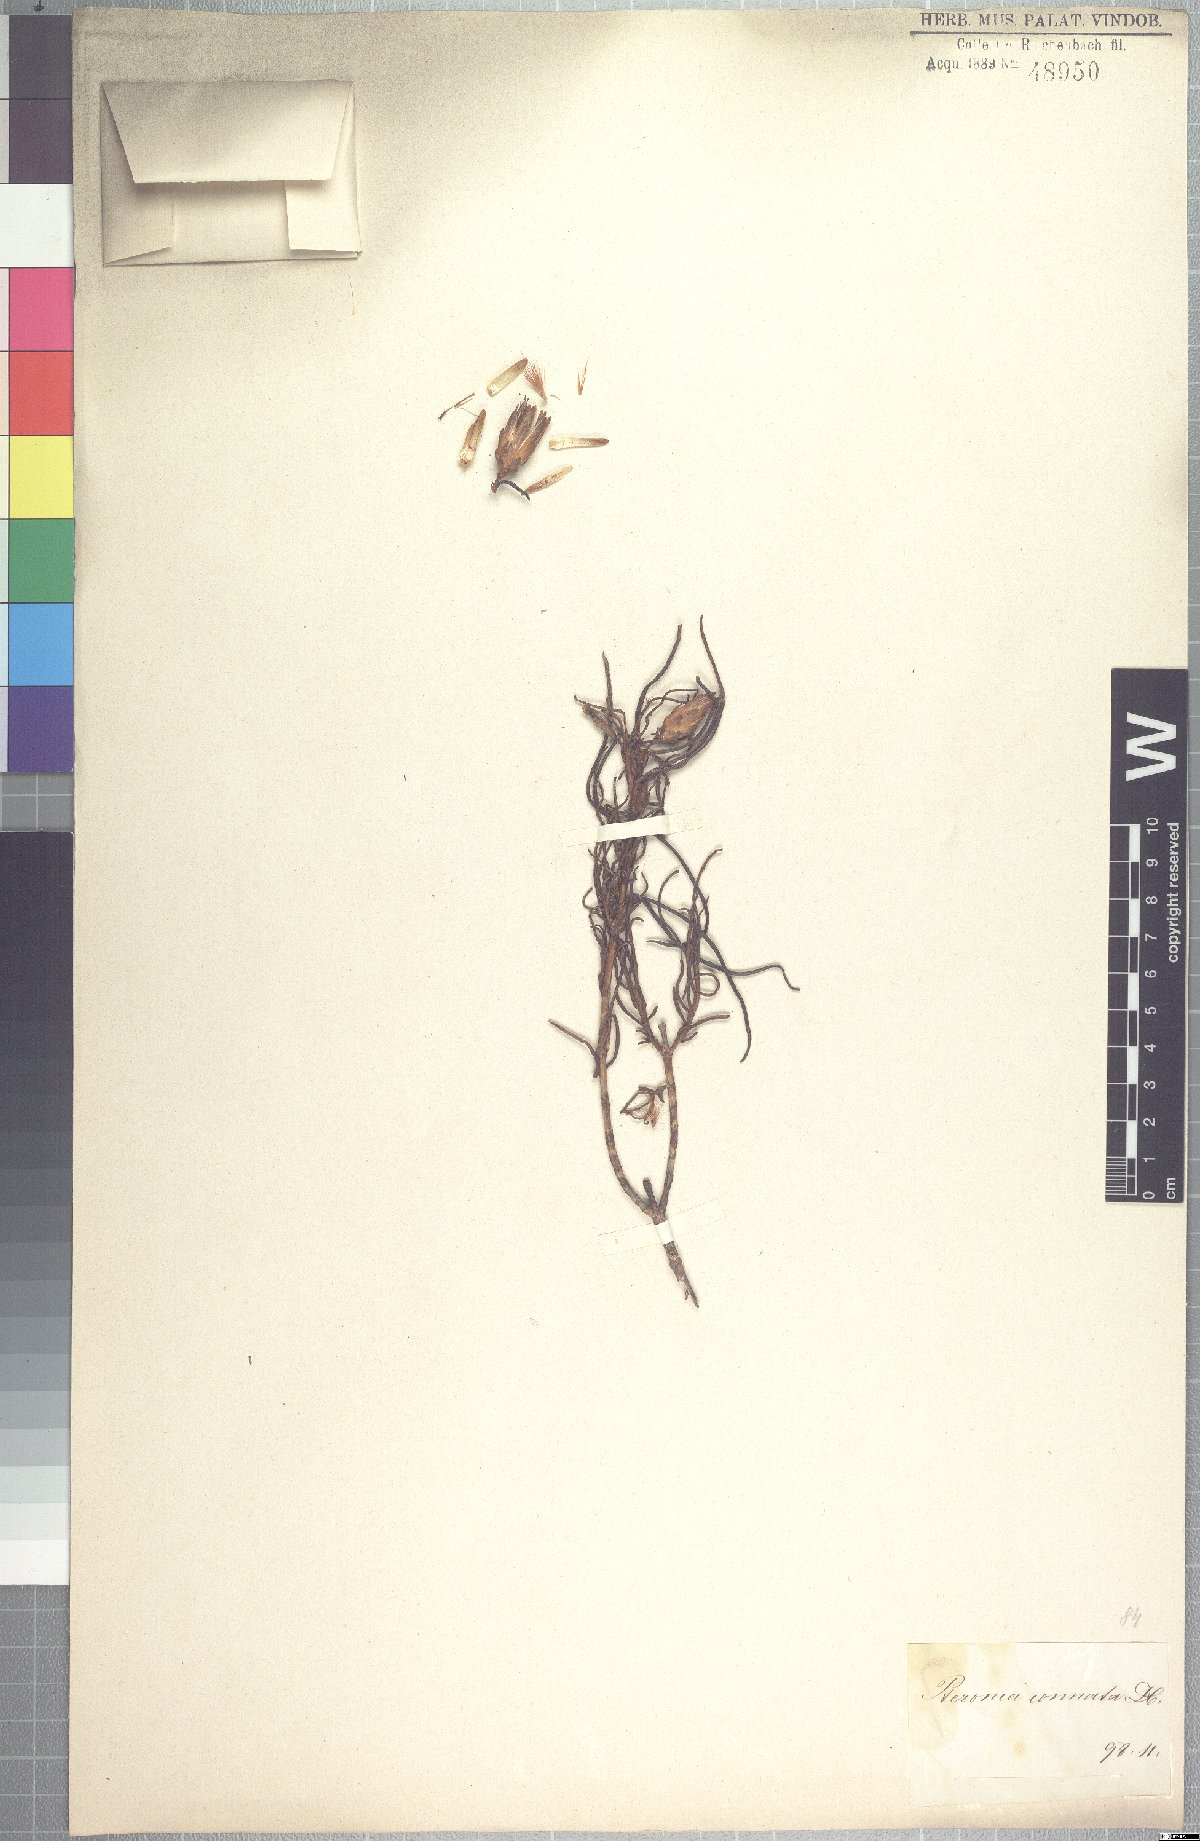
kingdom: Plantae
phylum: Tracheophyta
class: Magnoliopsida
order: Asterales
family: Asteraceae
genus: Pteronia
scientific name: Pteronia flexicaulis
